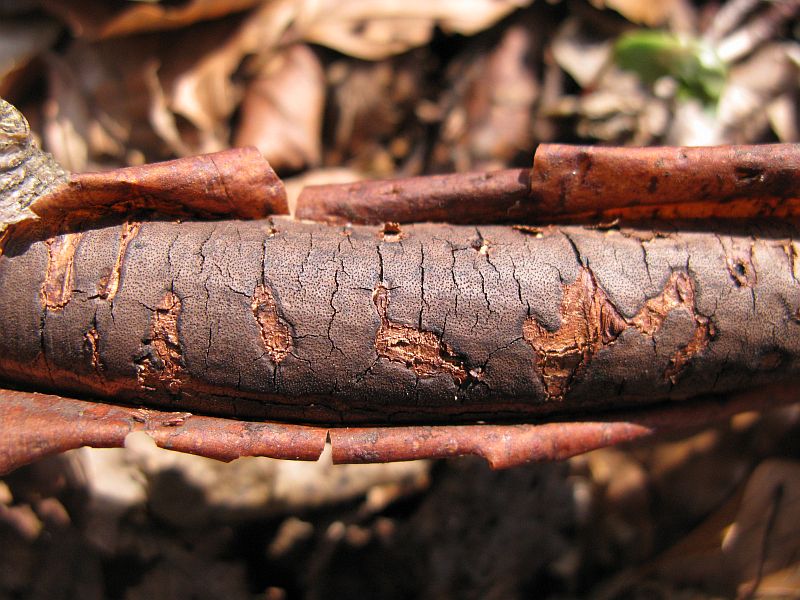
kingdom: Fungi
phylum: Ascomycota
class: Sordariomycetes
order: Xylariales
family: Diatrypaceae
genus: Diatrype
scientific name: Diatrype decorticata
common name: barksprænger-kulskorpe
